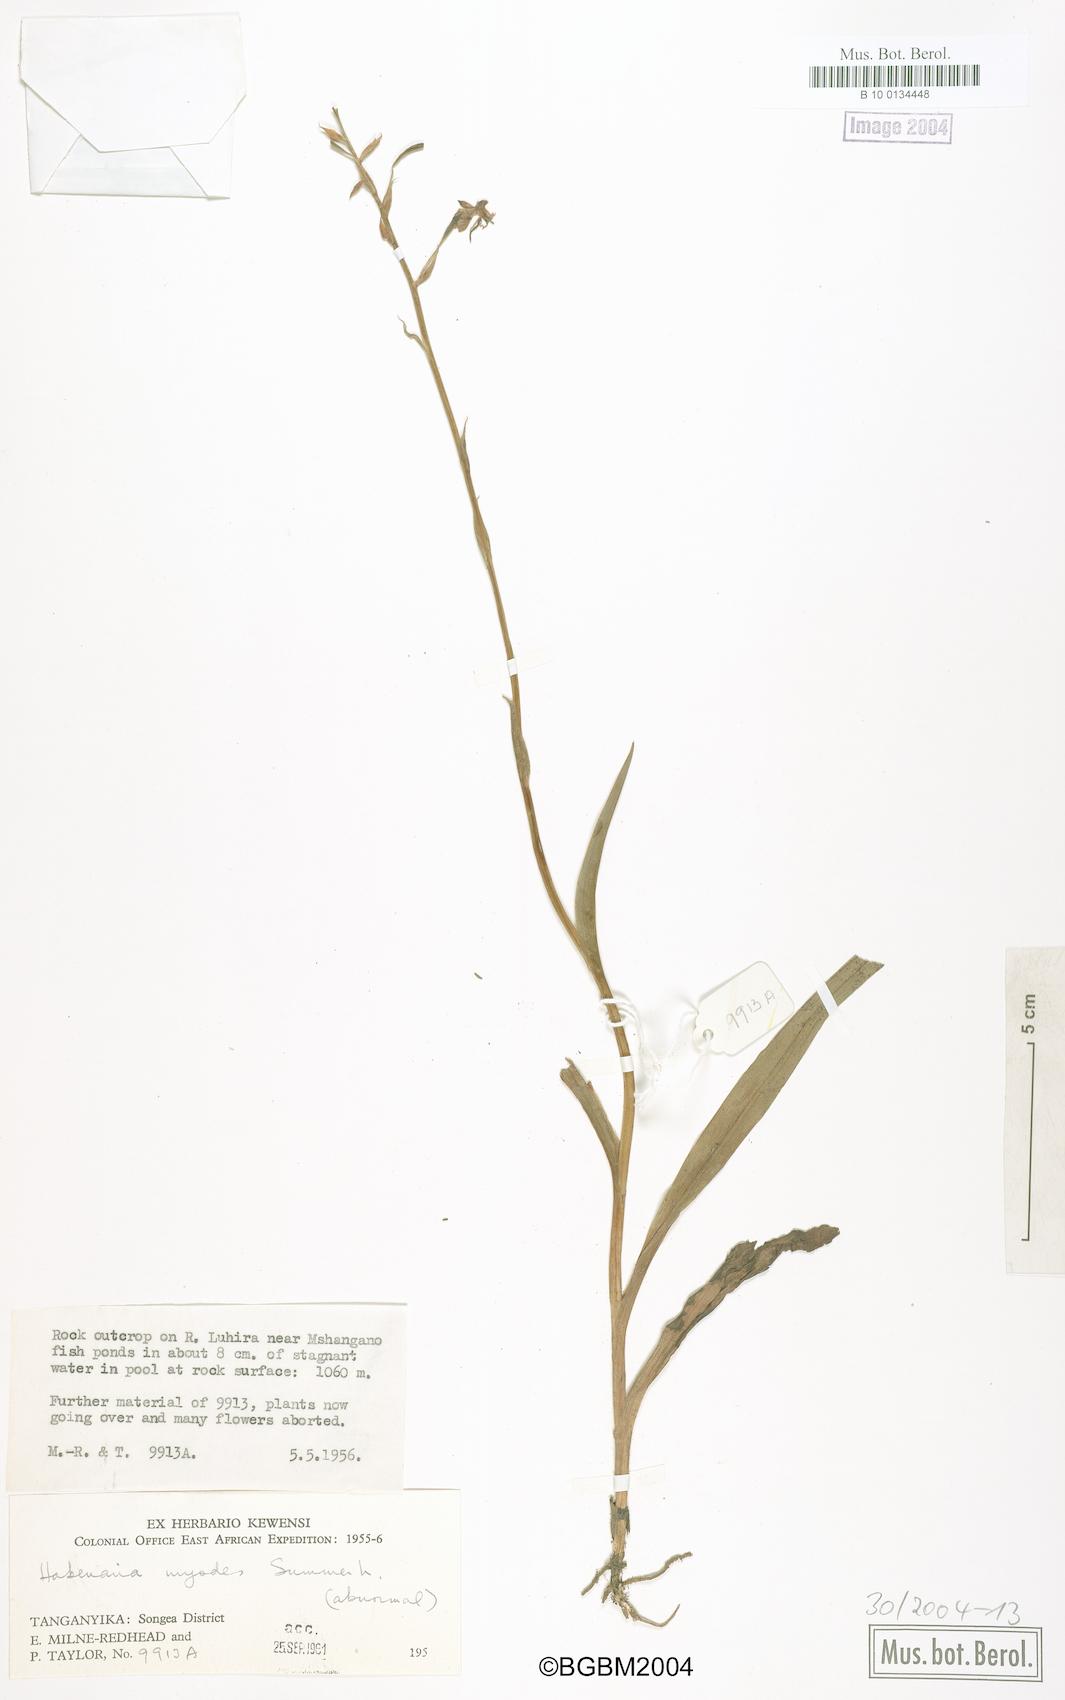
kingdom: Plantae
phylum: Tracheophyta
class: Liliopsida
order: Asparagales
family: Orchidaceae
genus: Habenaria
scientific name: Habenaria myodes
